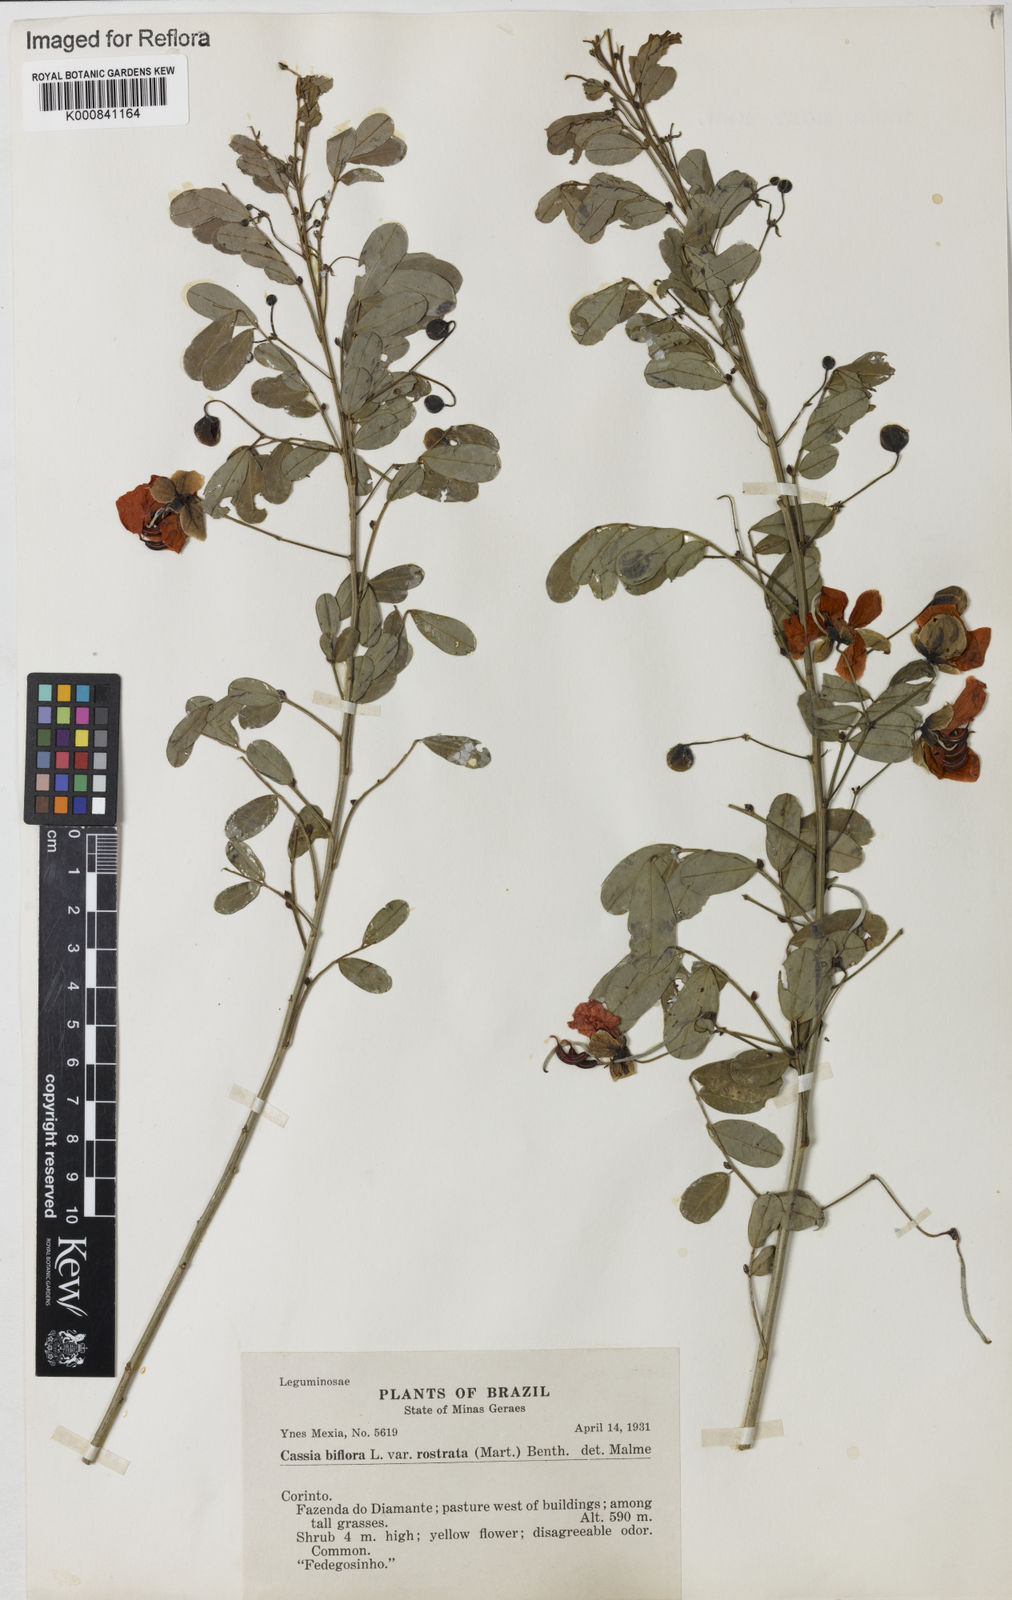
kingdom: Plantae
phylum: Tracheophyta
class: Magnoliopsida
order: Fabales
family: Fabaceae
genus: Senna
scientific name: Senna rostrata
